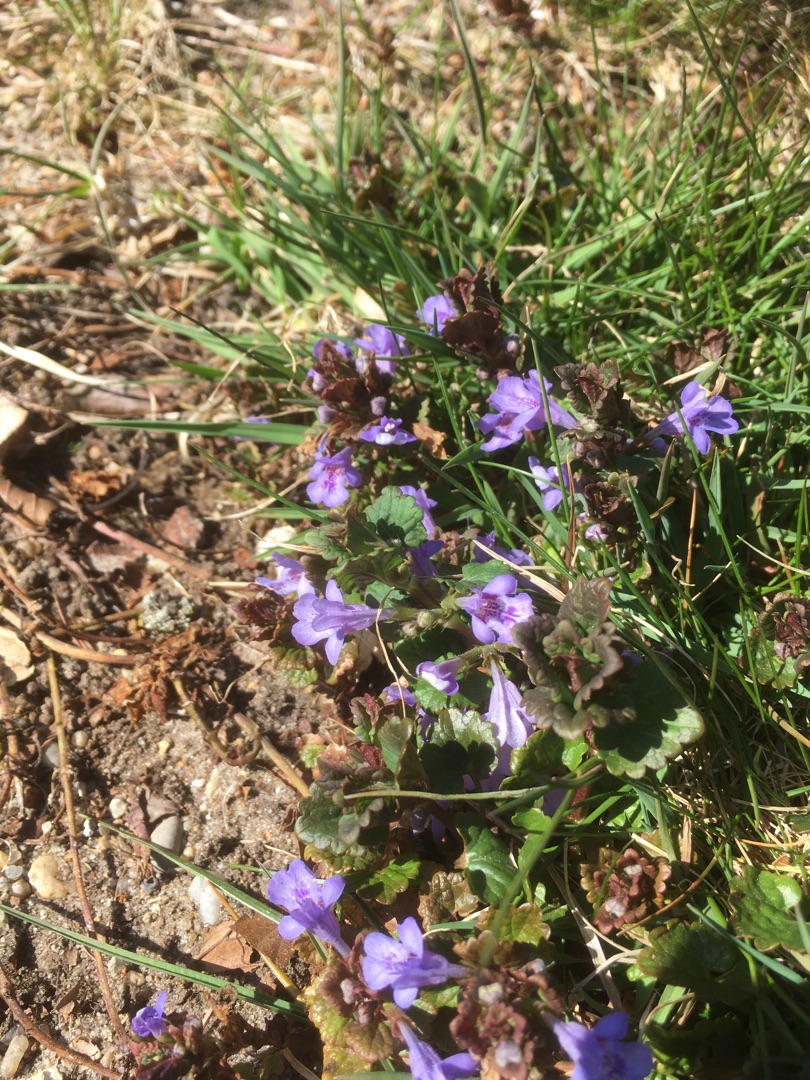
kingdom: Plantae
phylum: Tracheophyta
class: Magnoliopsida
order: Lamiales
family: Lamiaceae
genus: Glechoma
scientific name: Glechoma hederacea
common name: Korsknap
